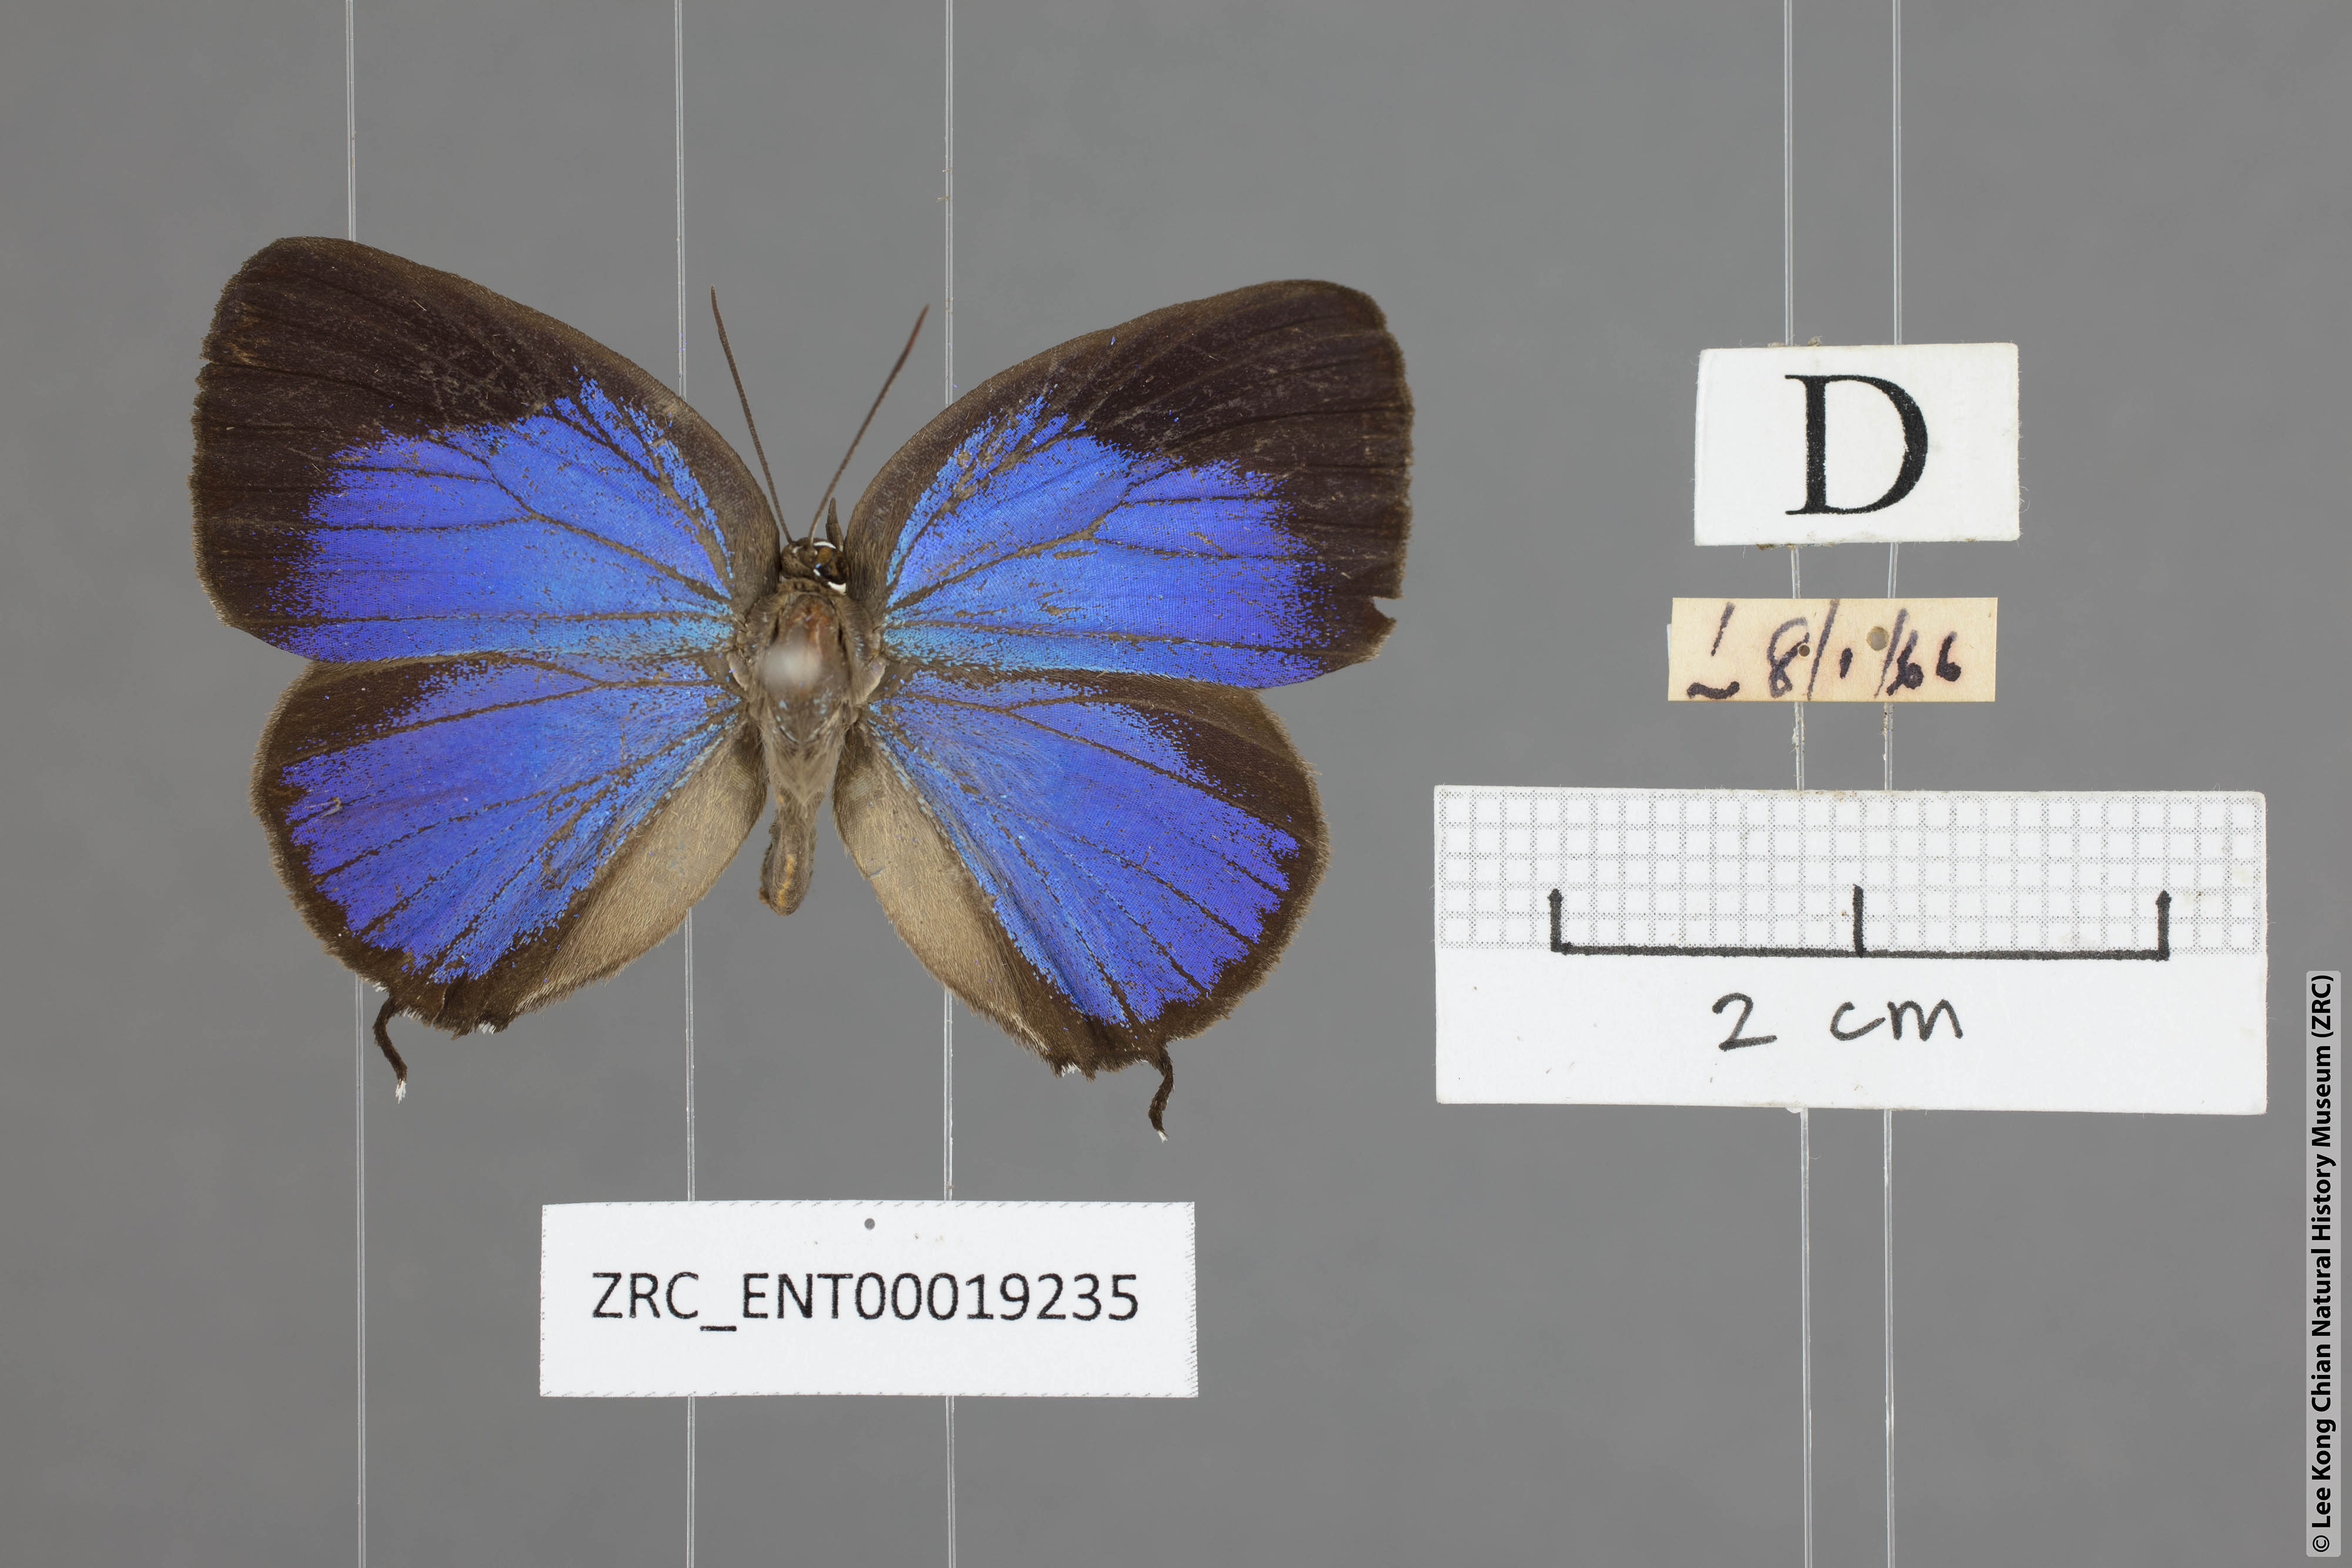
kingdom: Animalia
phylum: Arthropoda
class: Insecta
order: Lepidoptera
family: Lycaenidae
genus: Arhopala
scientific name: Arhopala atosia
